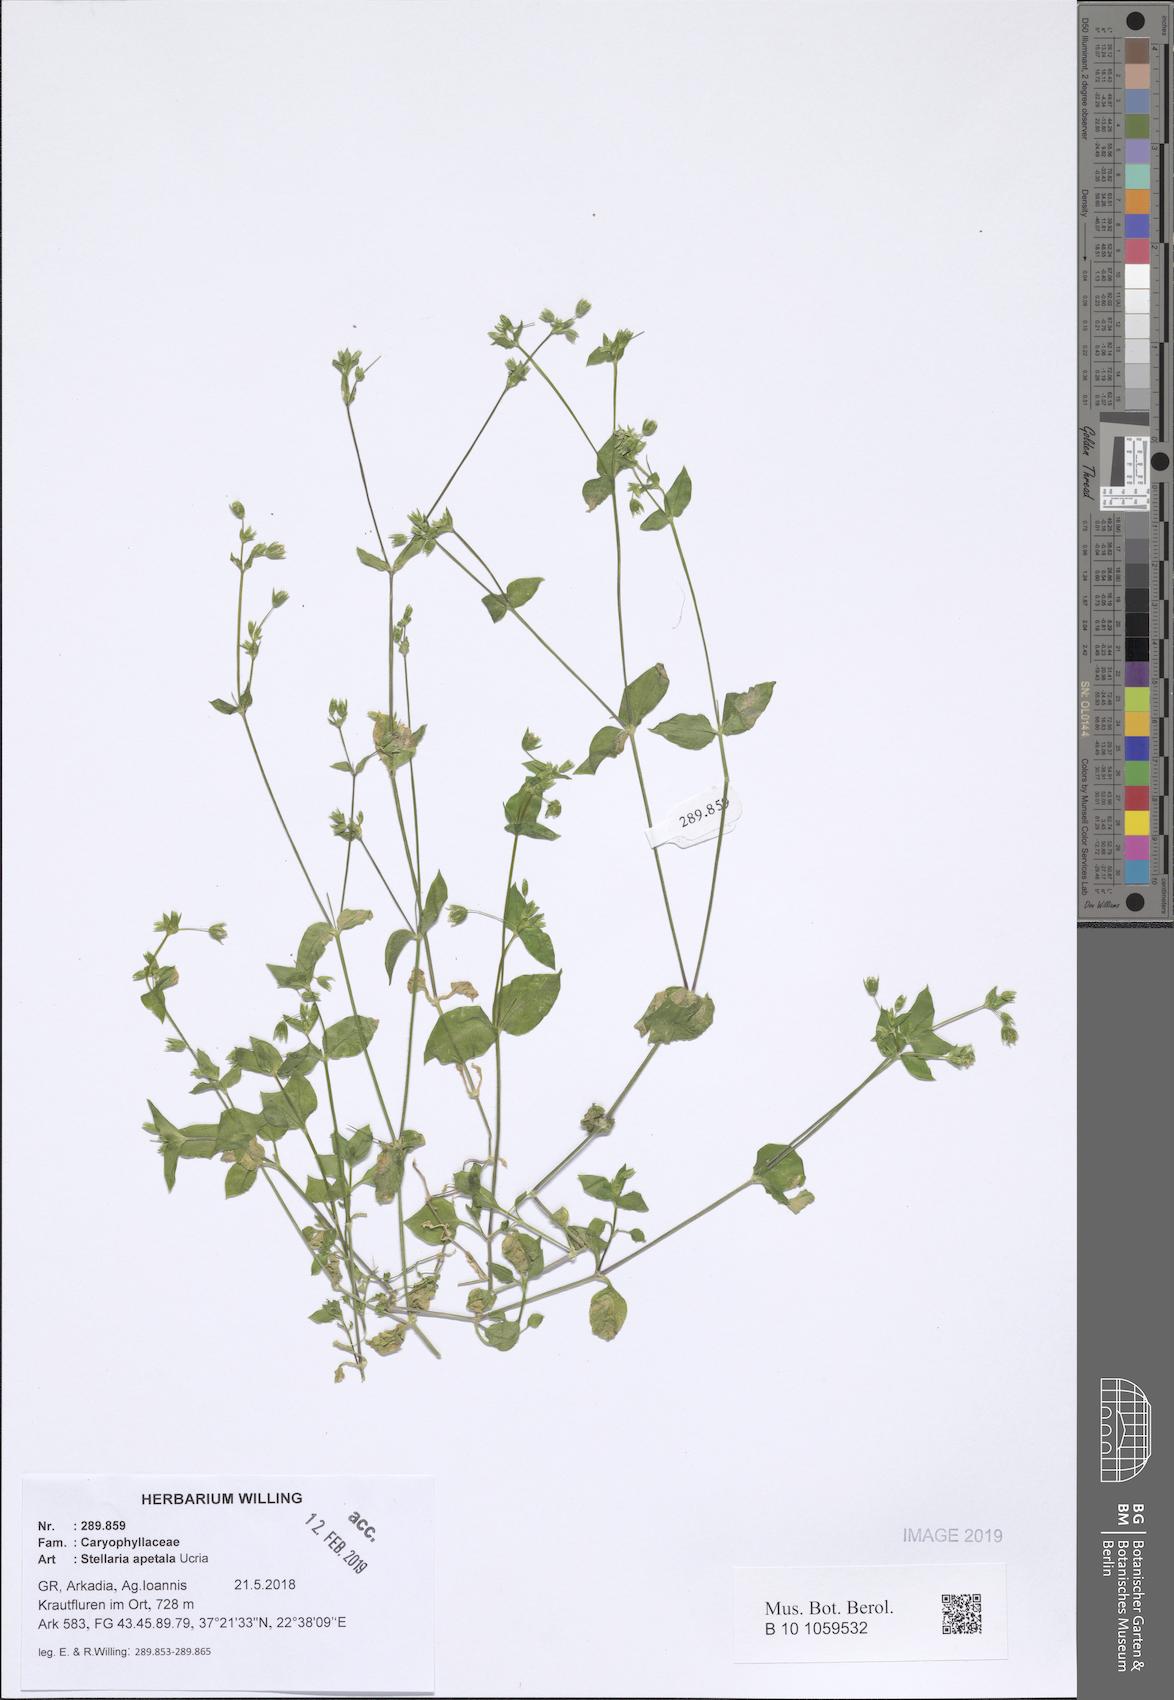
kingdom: Plantae
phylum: Tracheophyta
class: Magnoliopsida
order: Caryophyllales
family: Caryophyllaceae
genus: Stellaria
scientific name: Stellaria apetala
